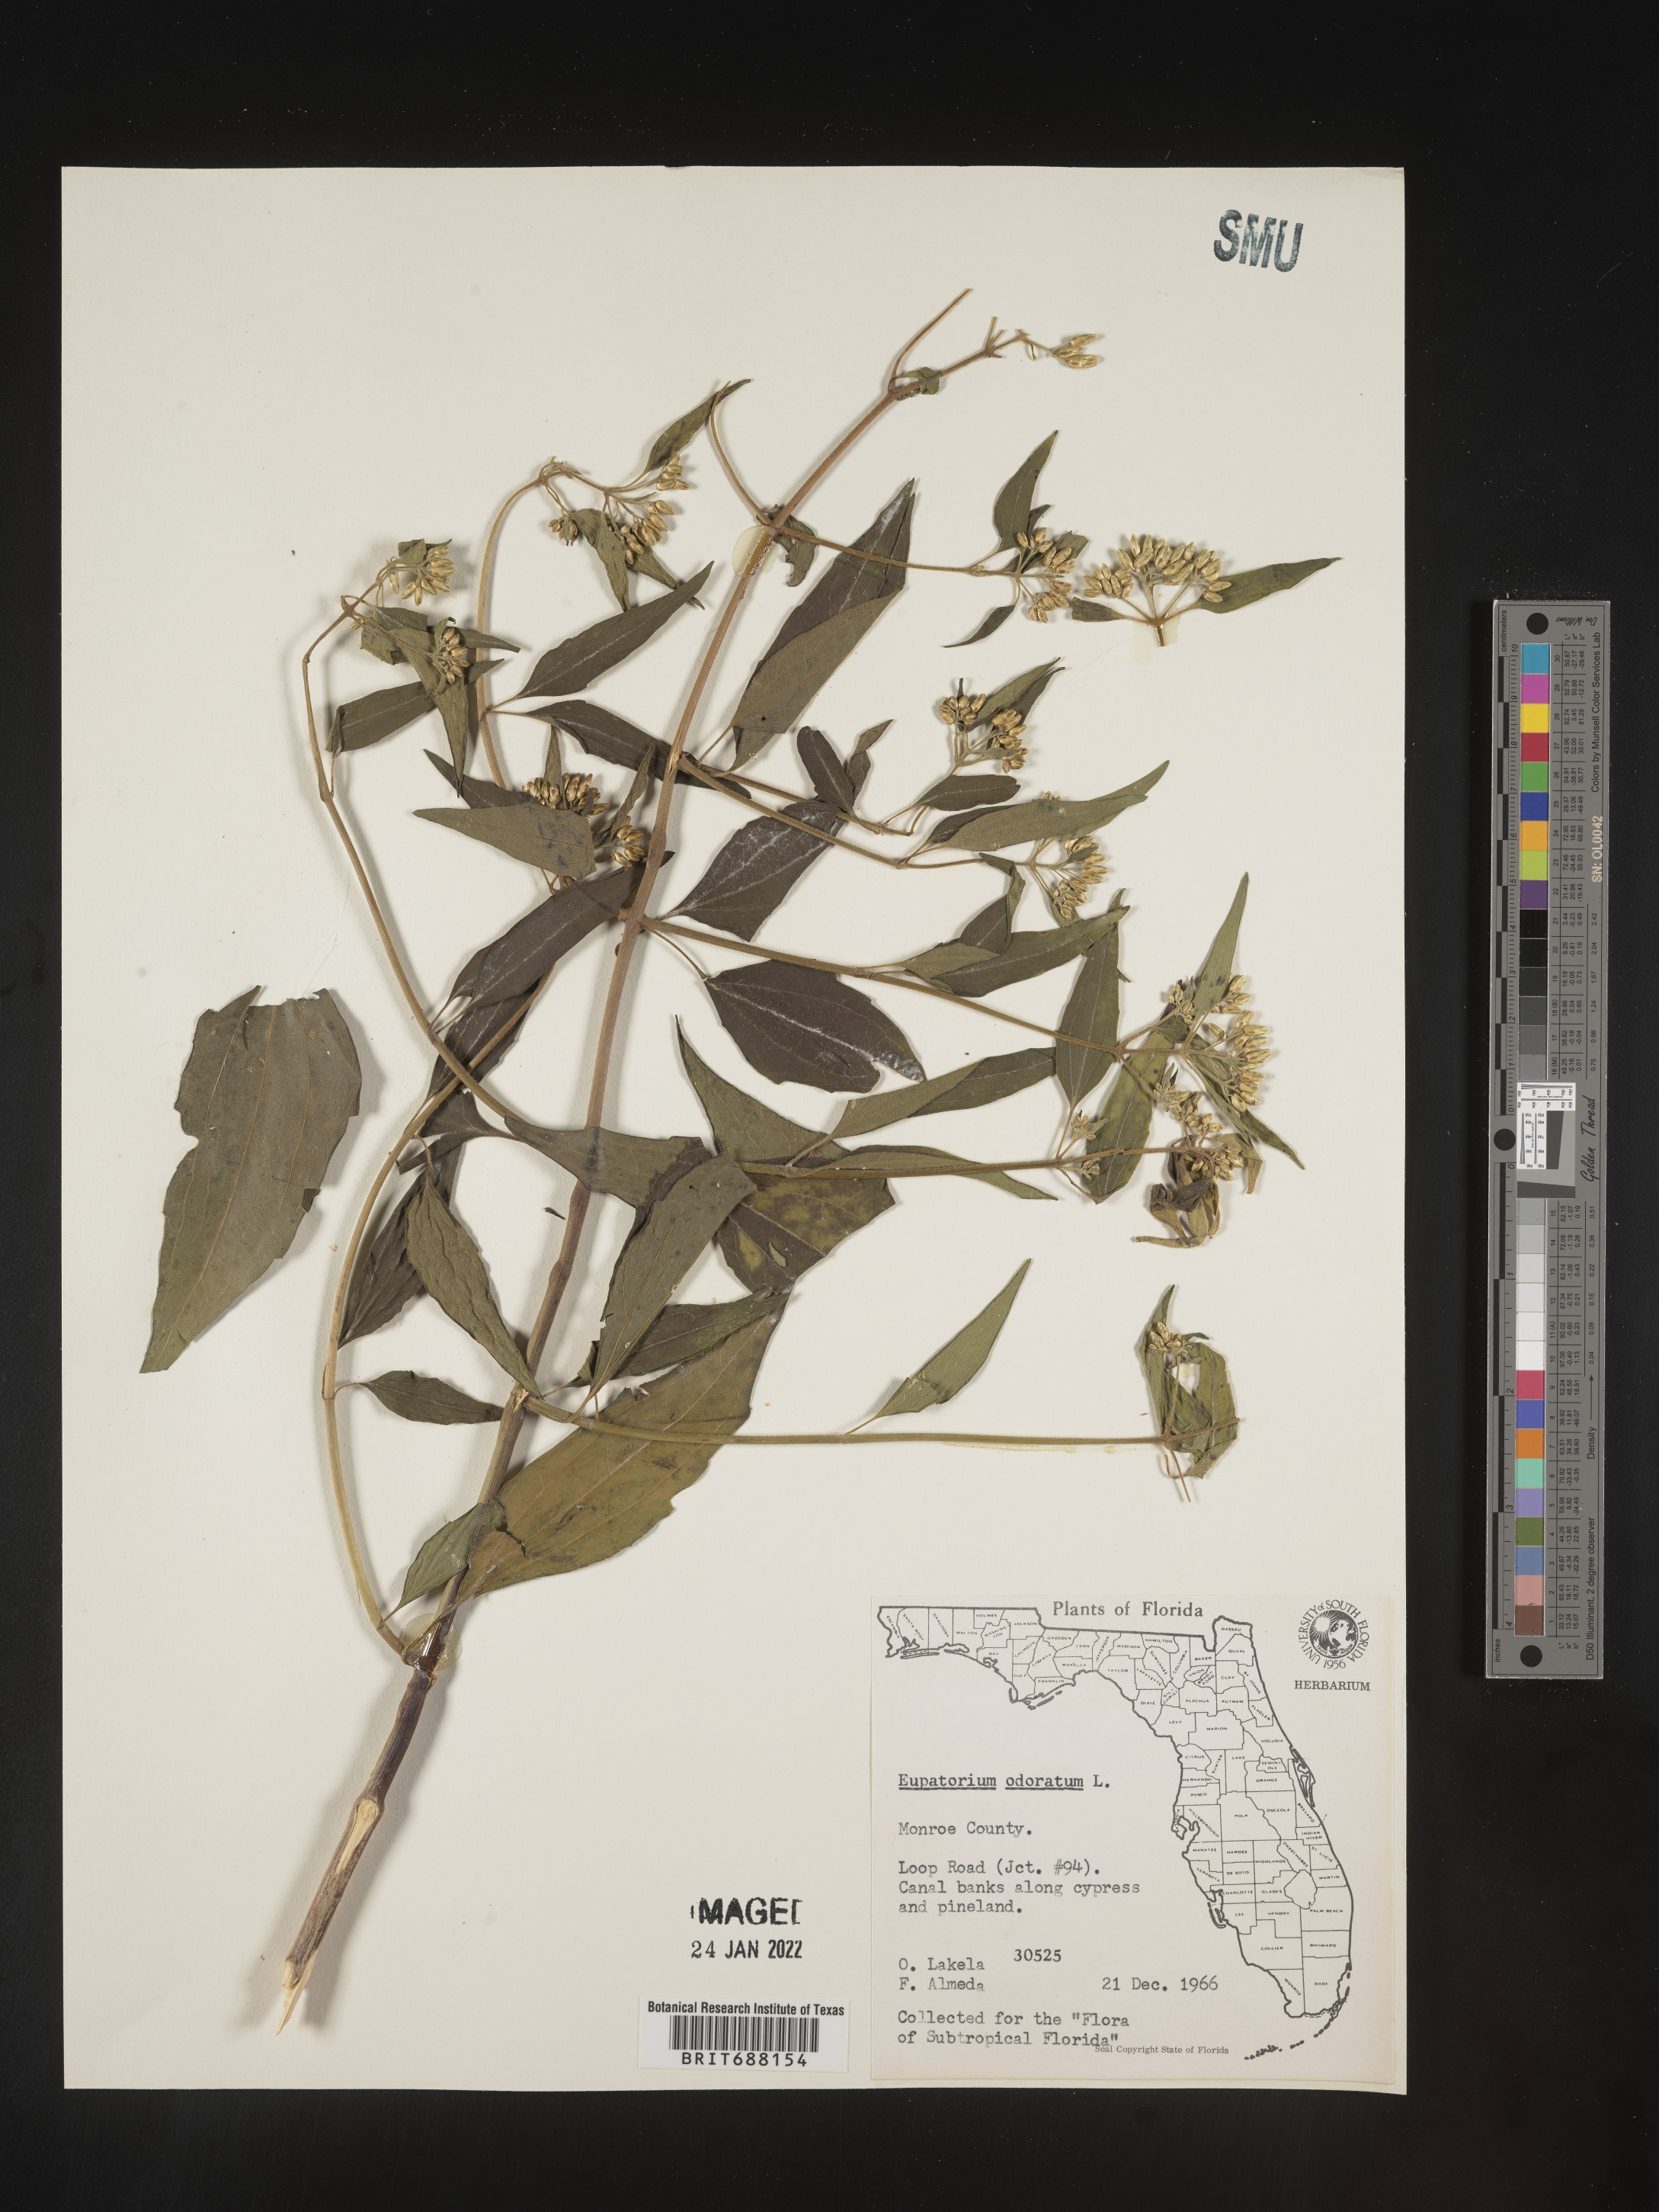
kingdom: Plantae
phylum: Tracheophyta
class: Magnoliopsida
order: Asterales
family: Asteraceae
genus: Chromolaena
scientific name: Chromolaena odorata
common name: Siamweed
